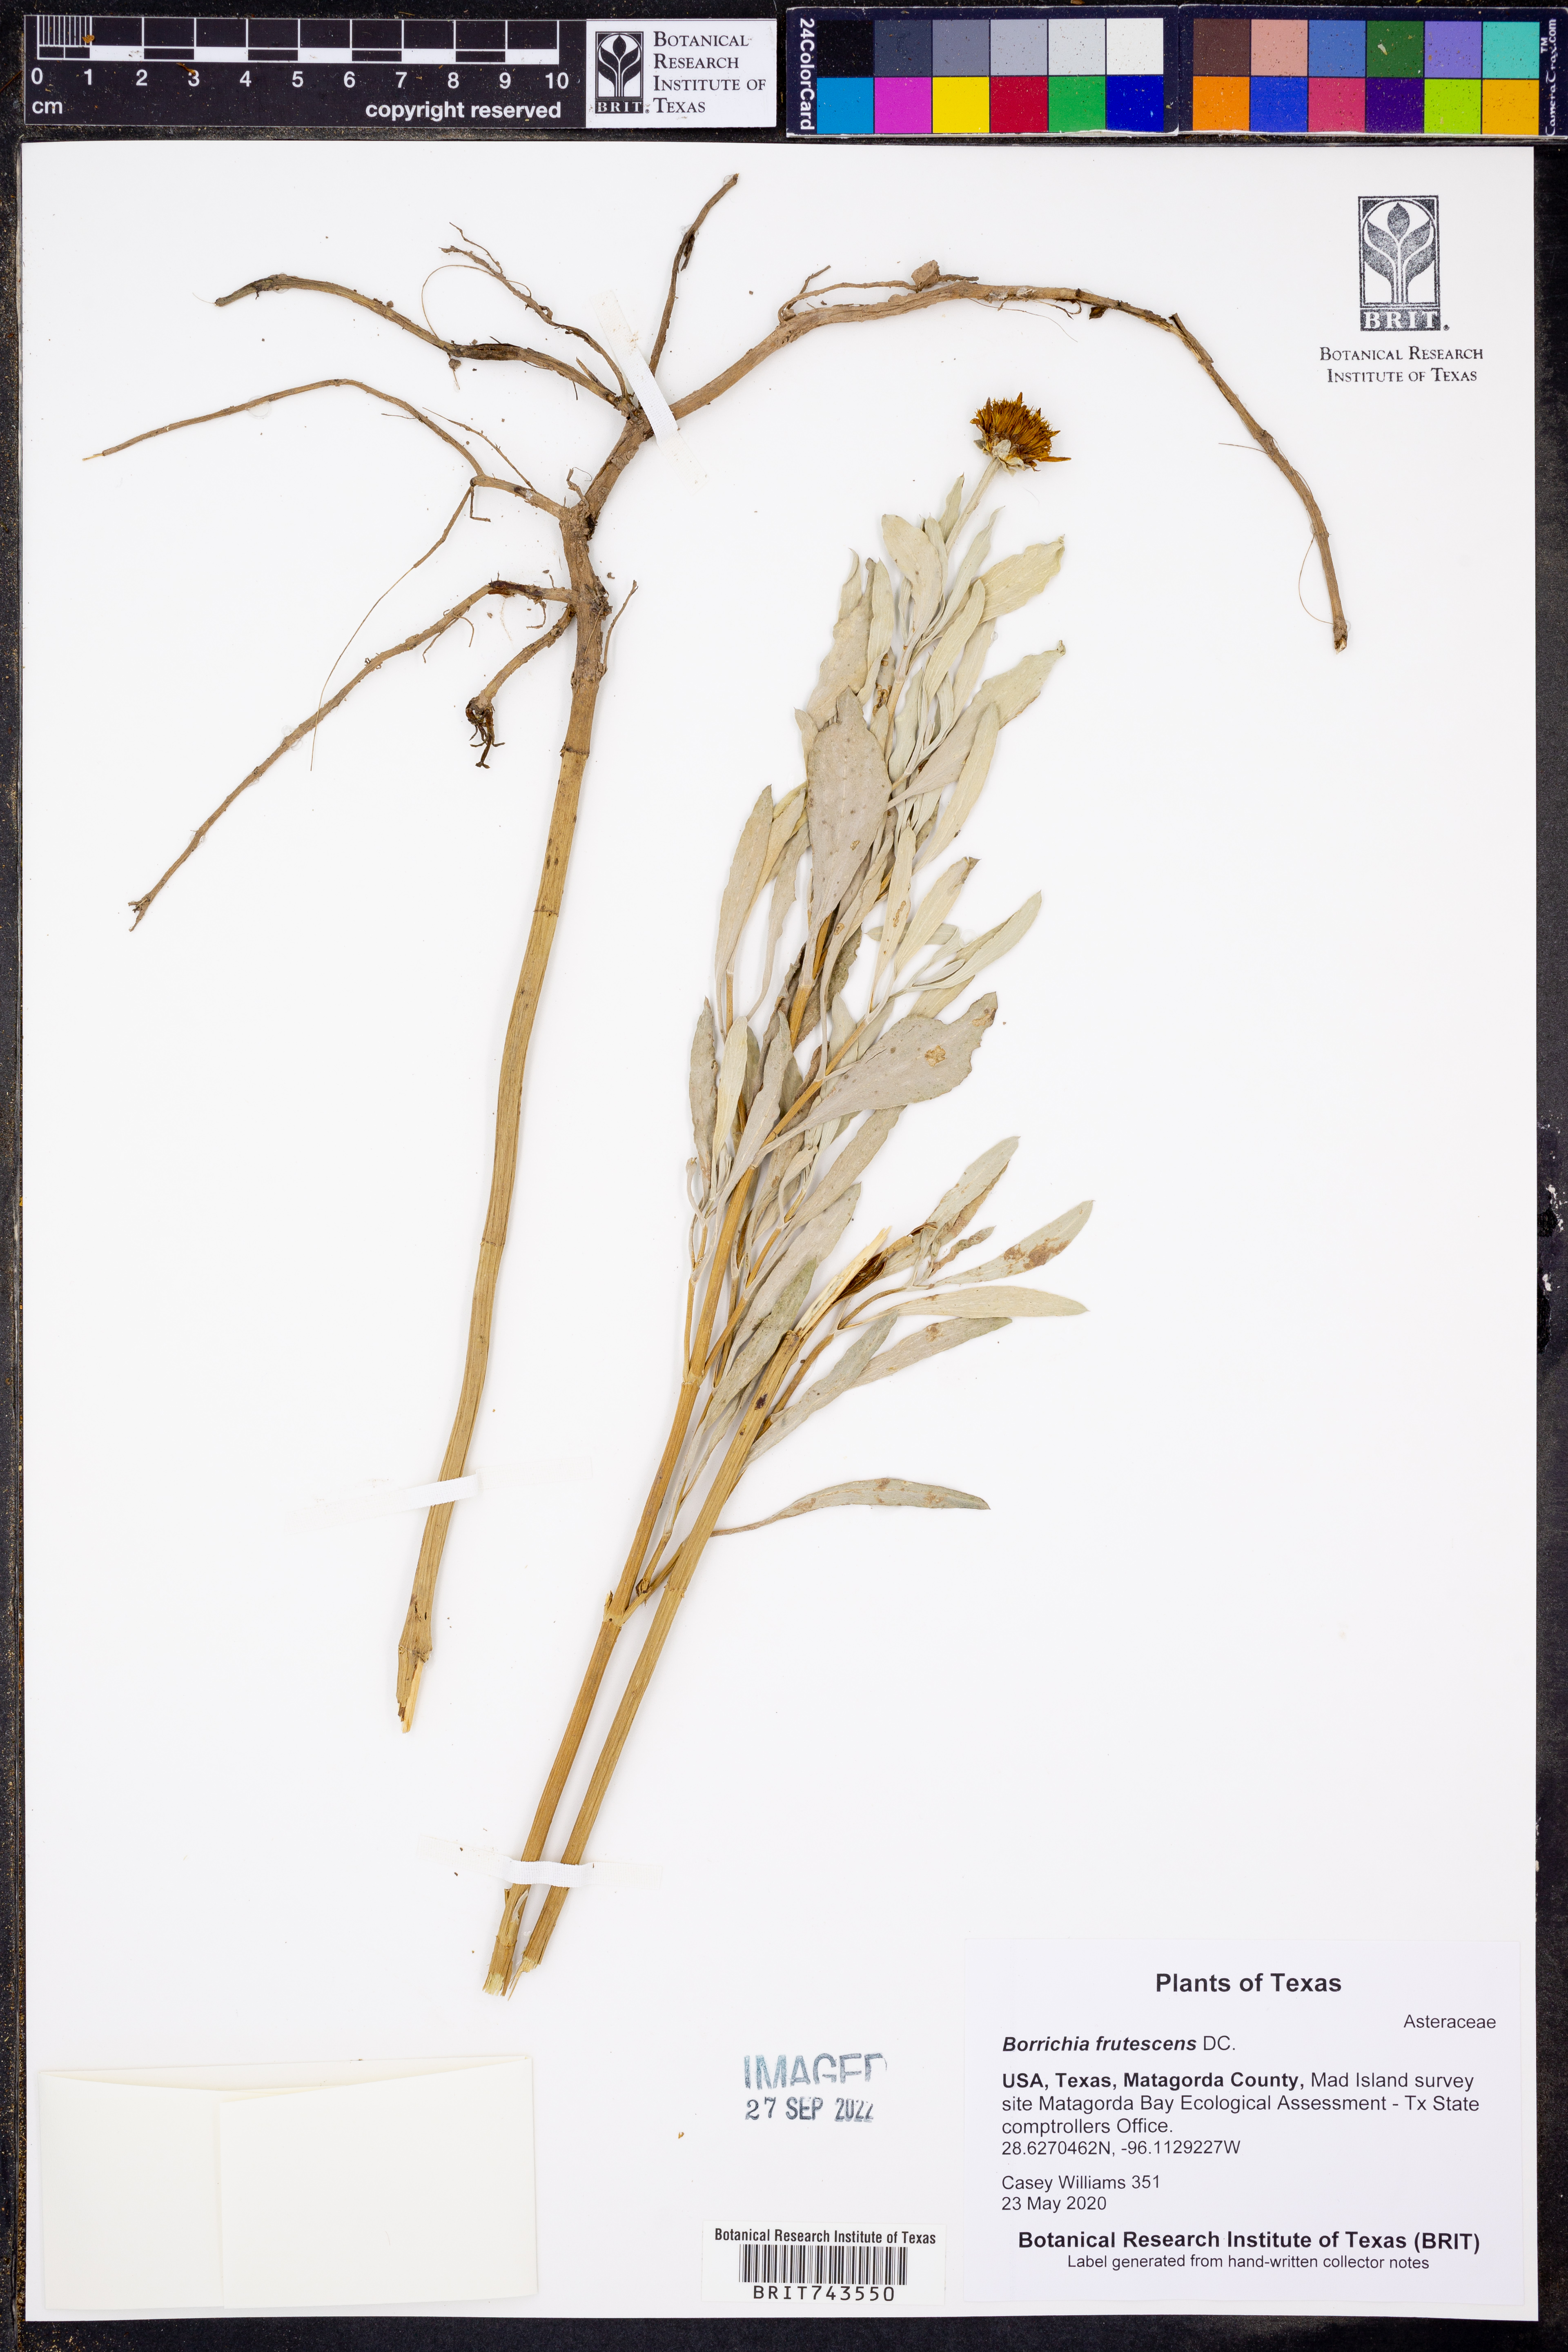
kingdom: Plantae
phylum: Tracheophyta
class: Magnoliopsida
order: Asterales
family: Asteraceae
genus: Borrichia
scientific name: Borrichia frutescens
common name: Sea oxeye
